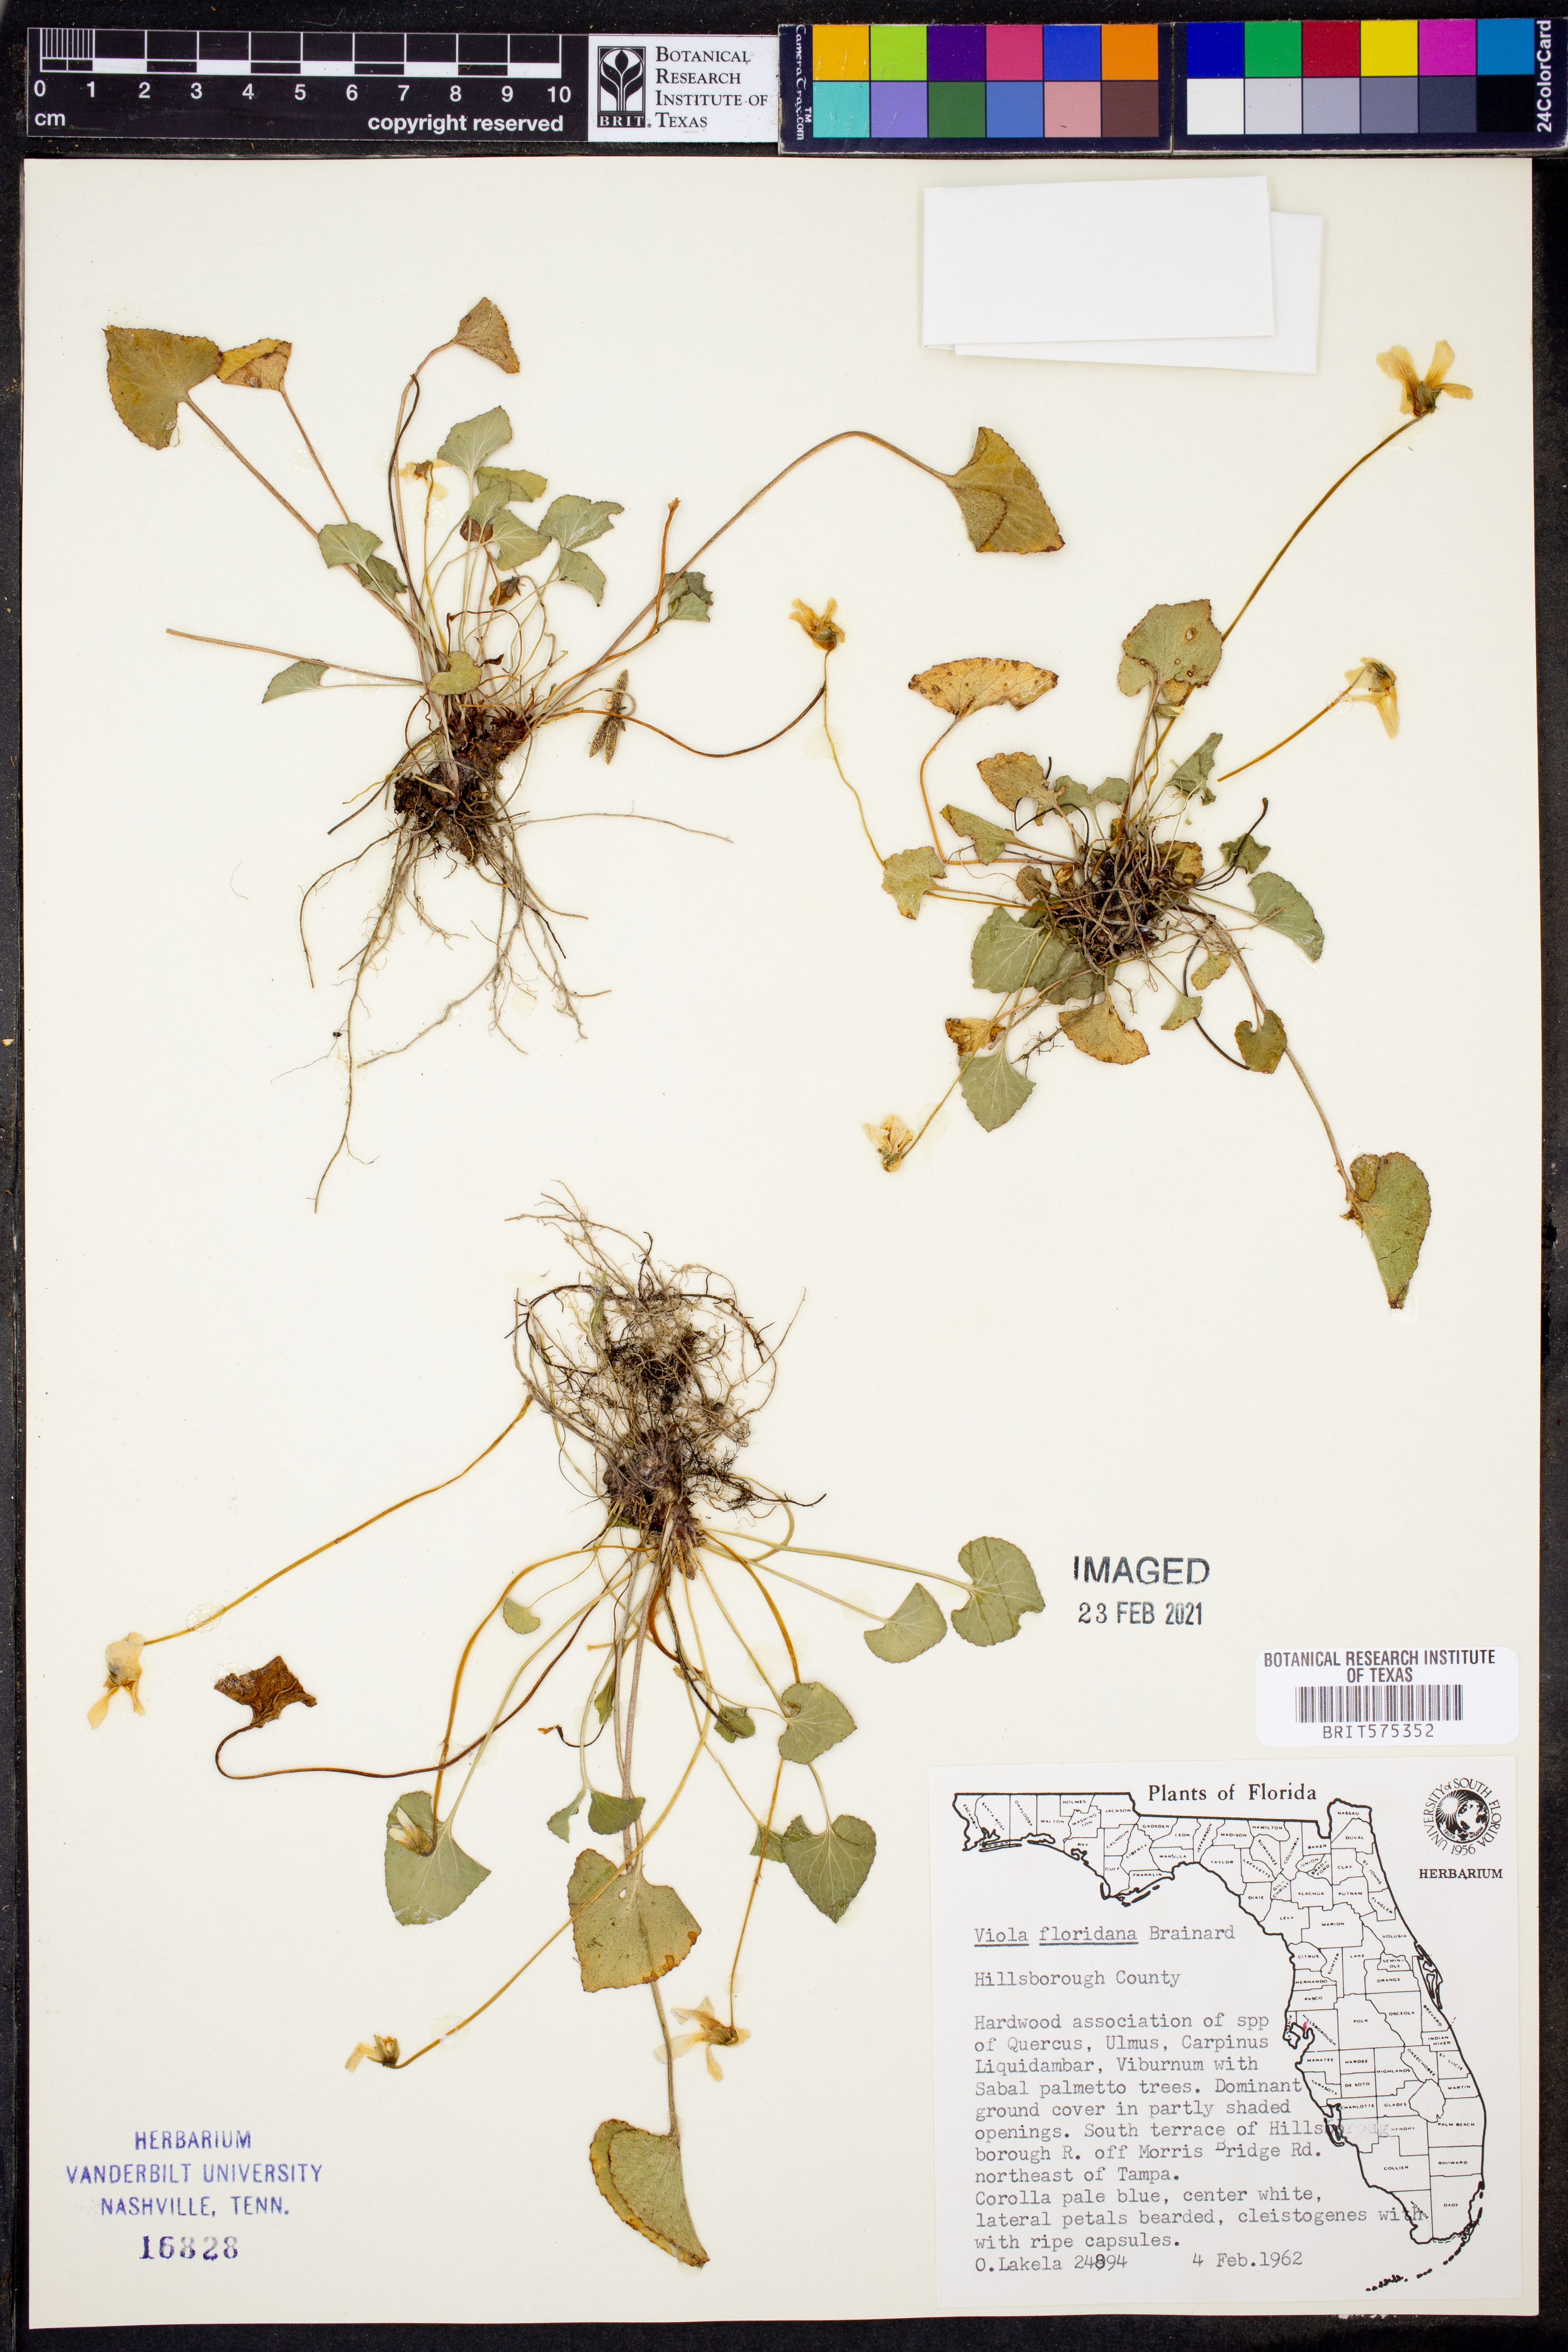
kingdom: Plantae
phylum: Tracheophyta
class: Magnoliopsida
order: Malpighiales
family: Violaceae
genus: Viola
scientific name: Viola floridana
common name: Florida violet
